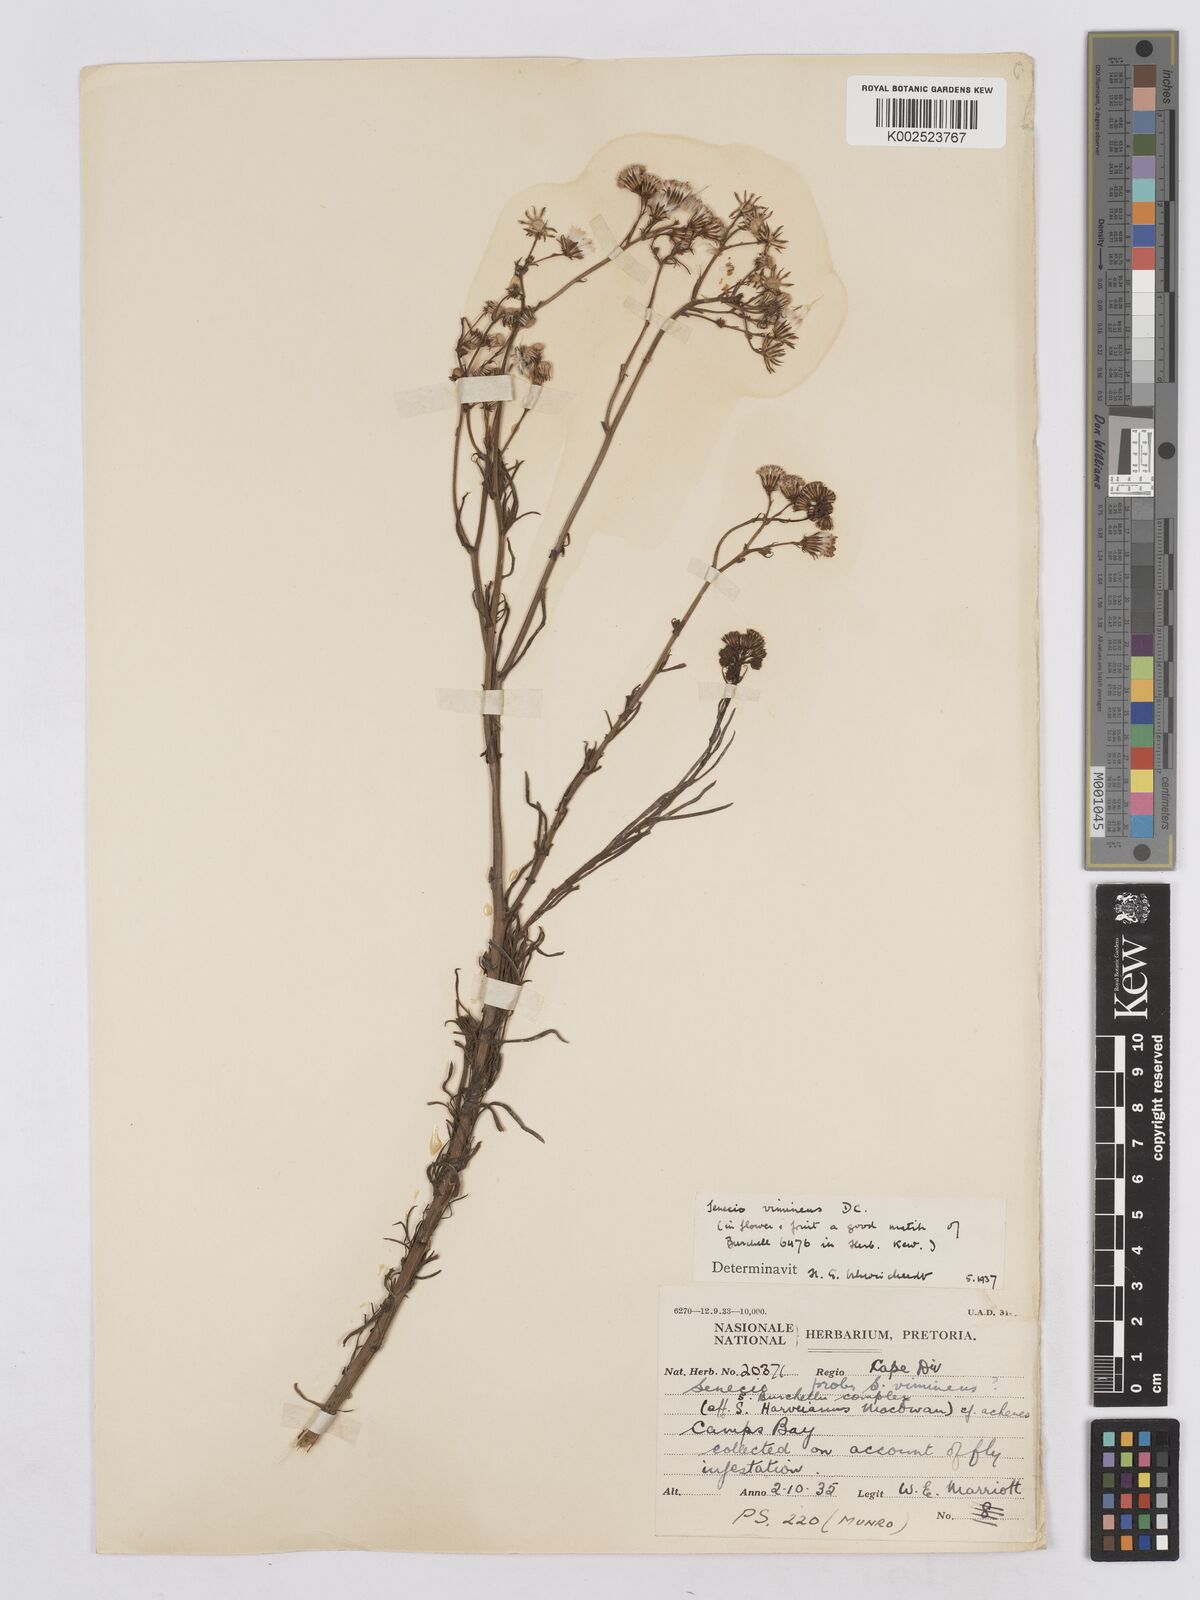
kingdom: Plantae
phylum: Tracheophyta
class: Magnoliopsida
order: Asterales
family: Asteraceae
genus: Senecio
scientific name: Senecio vimineus
